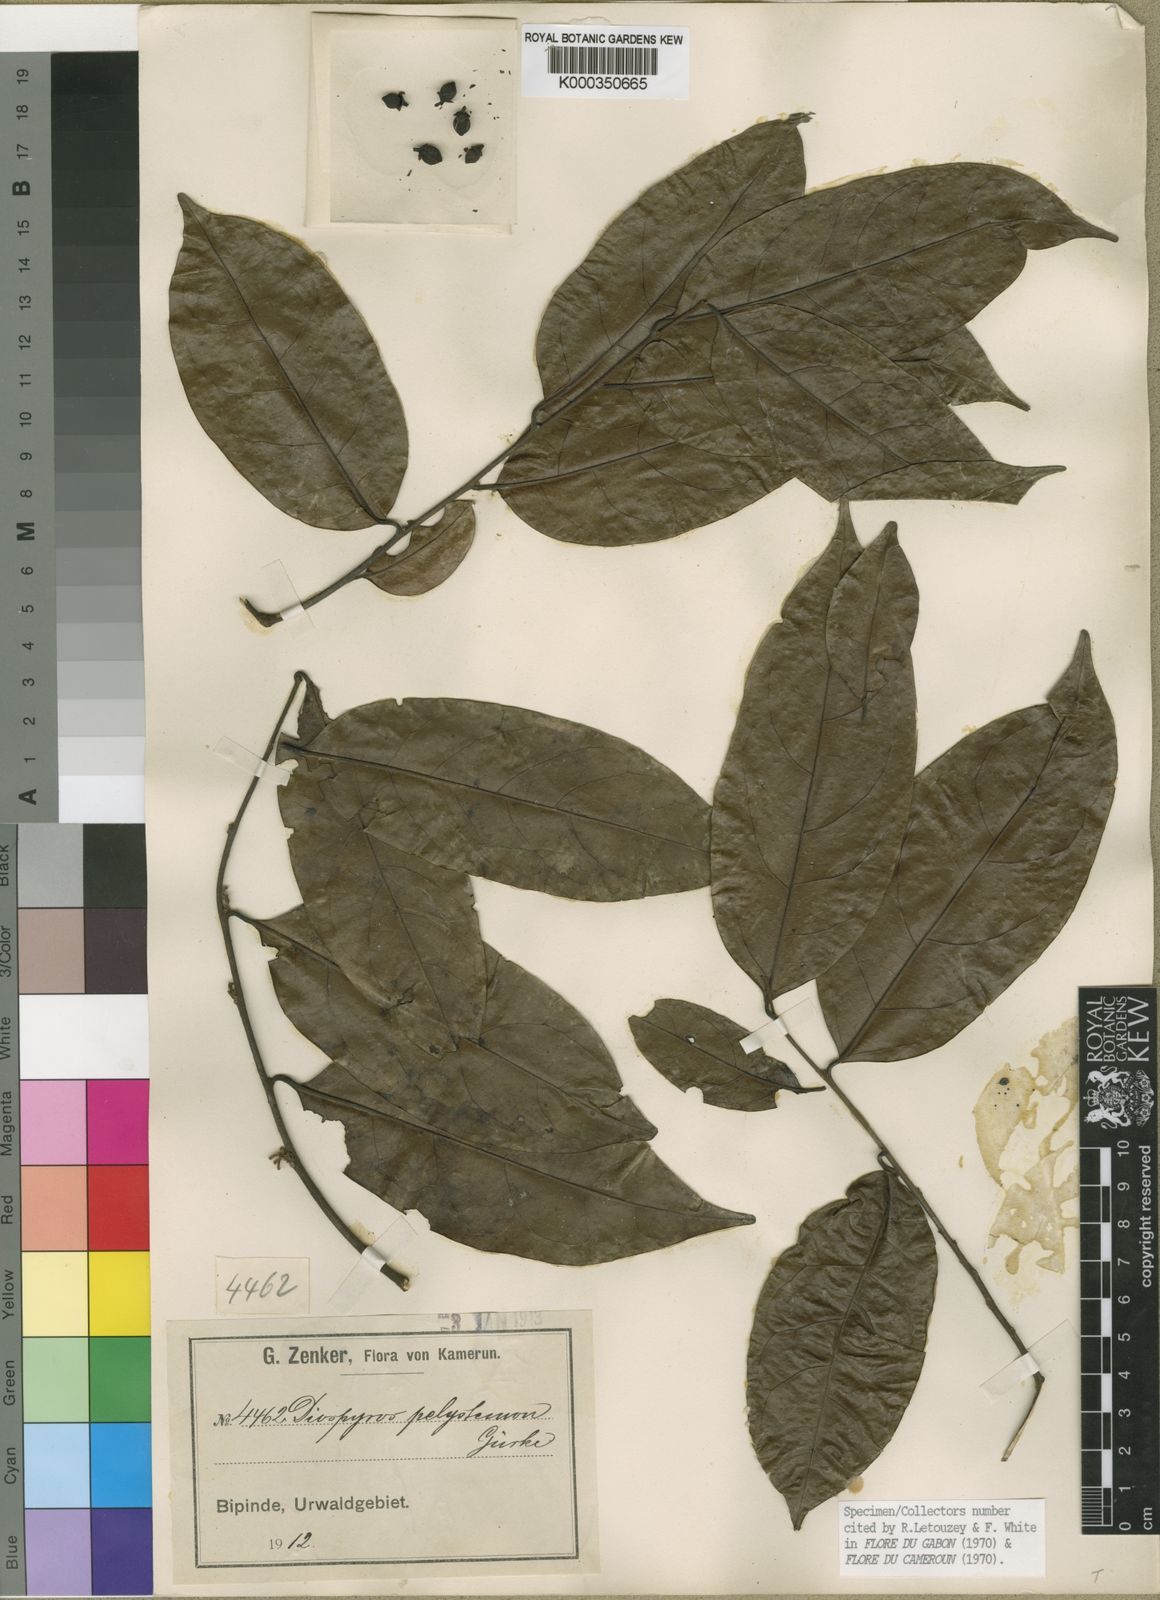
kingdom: Plantae
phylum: Tracheophyta
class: Magnoliopsida
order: Ericales
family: Ebenaceae
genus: Diospyros
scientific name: Diospyros
